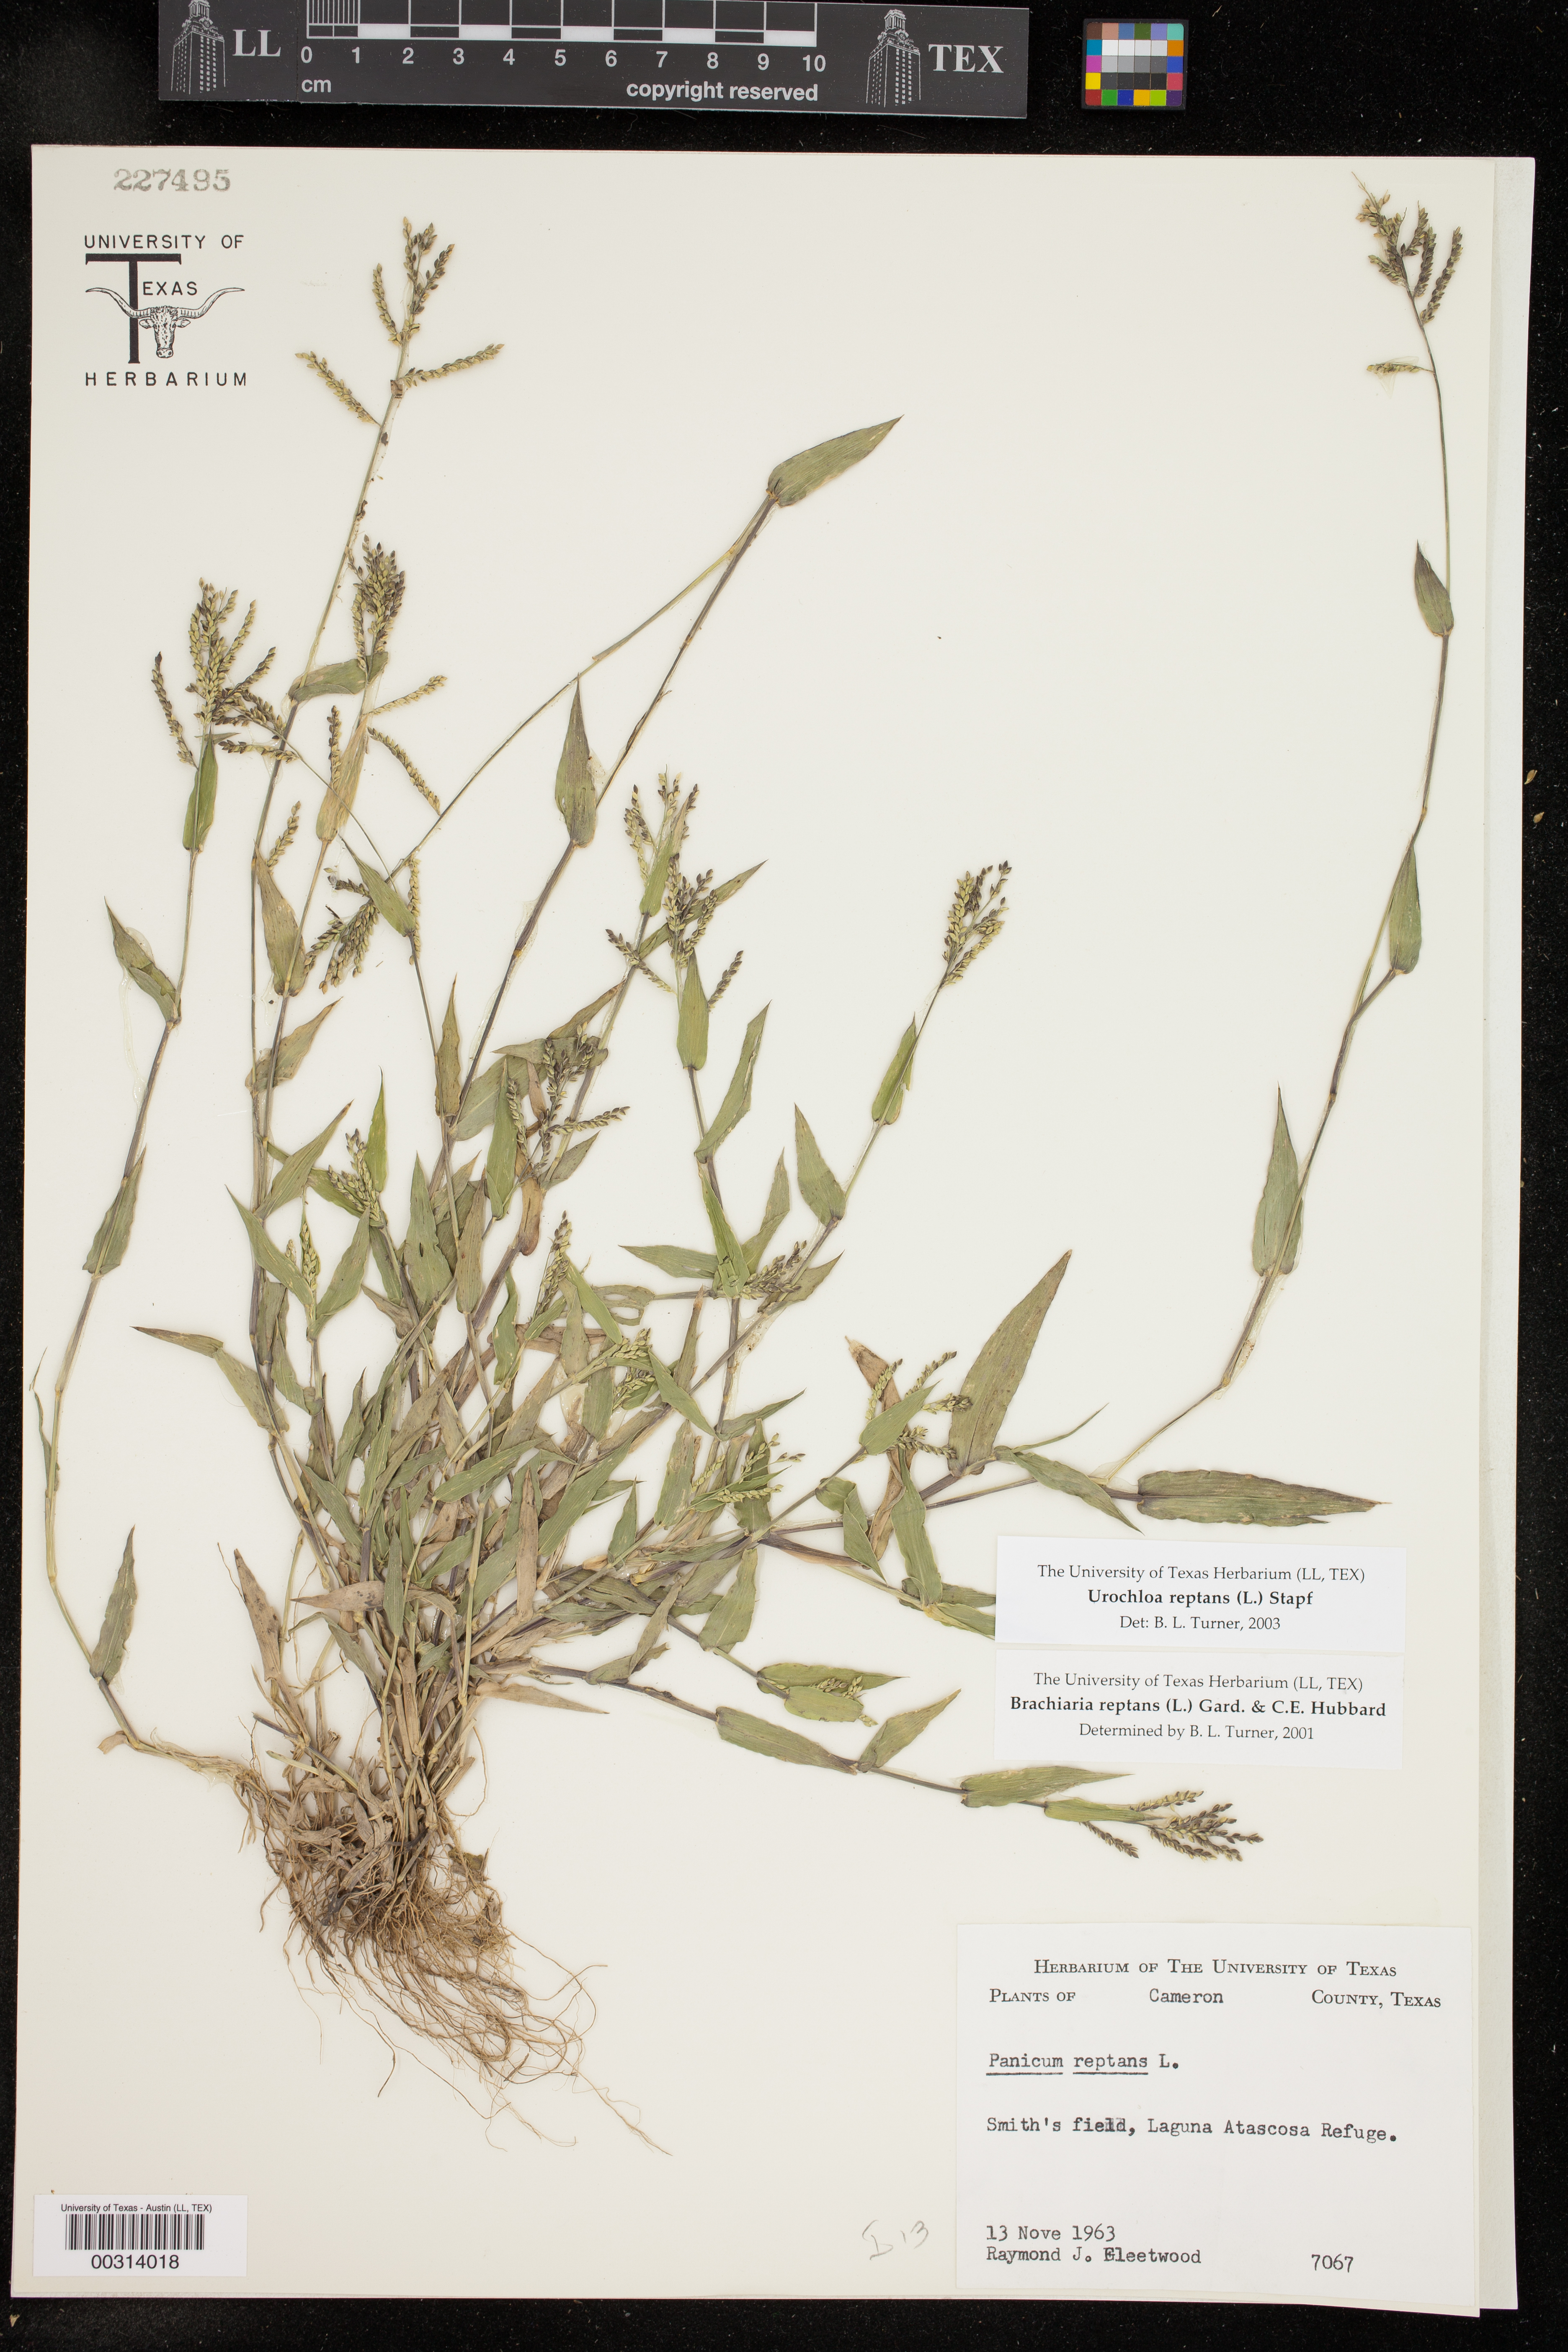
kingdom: Plantae
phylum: Tracheophyta
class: Liliopsida
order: Poales
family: Poaceae
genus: Urochloa
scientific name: Urochloa reptans
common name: Sprawling signalgrass
